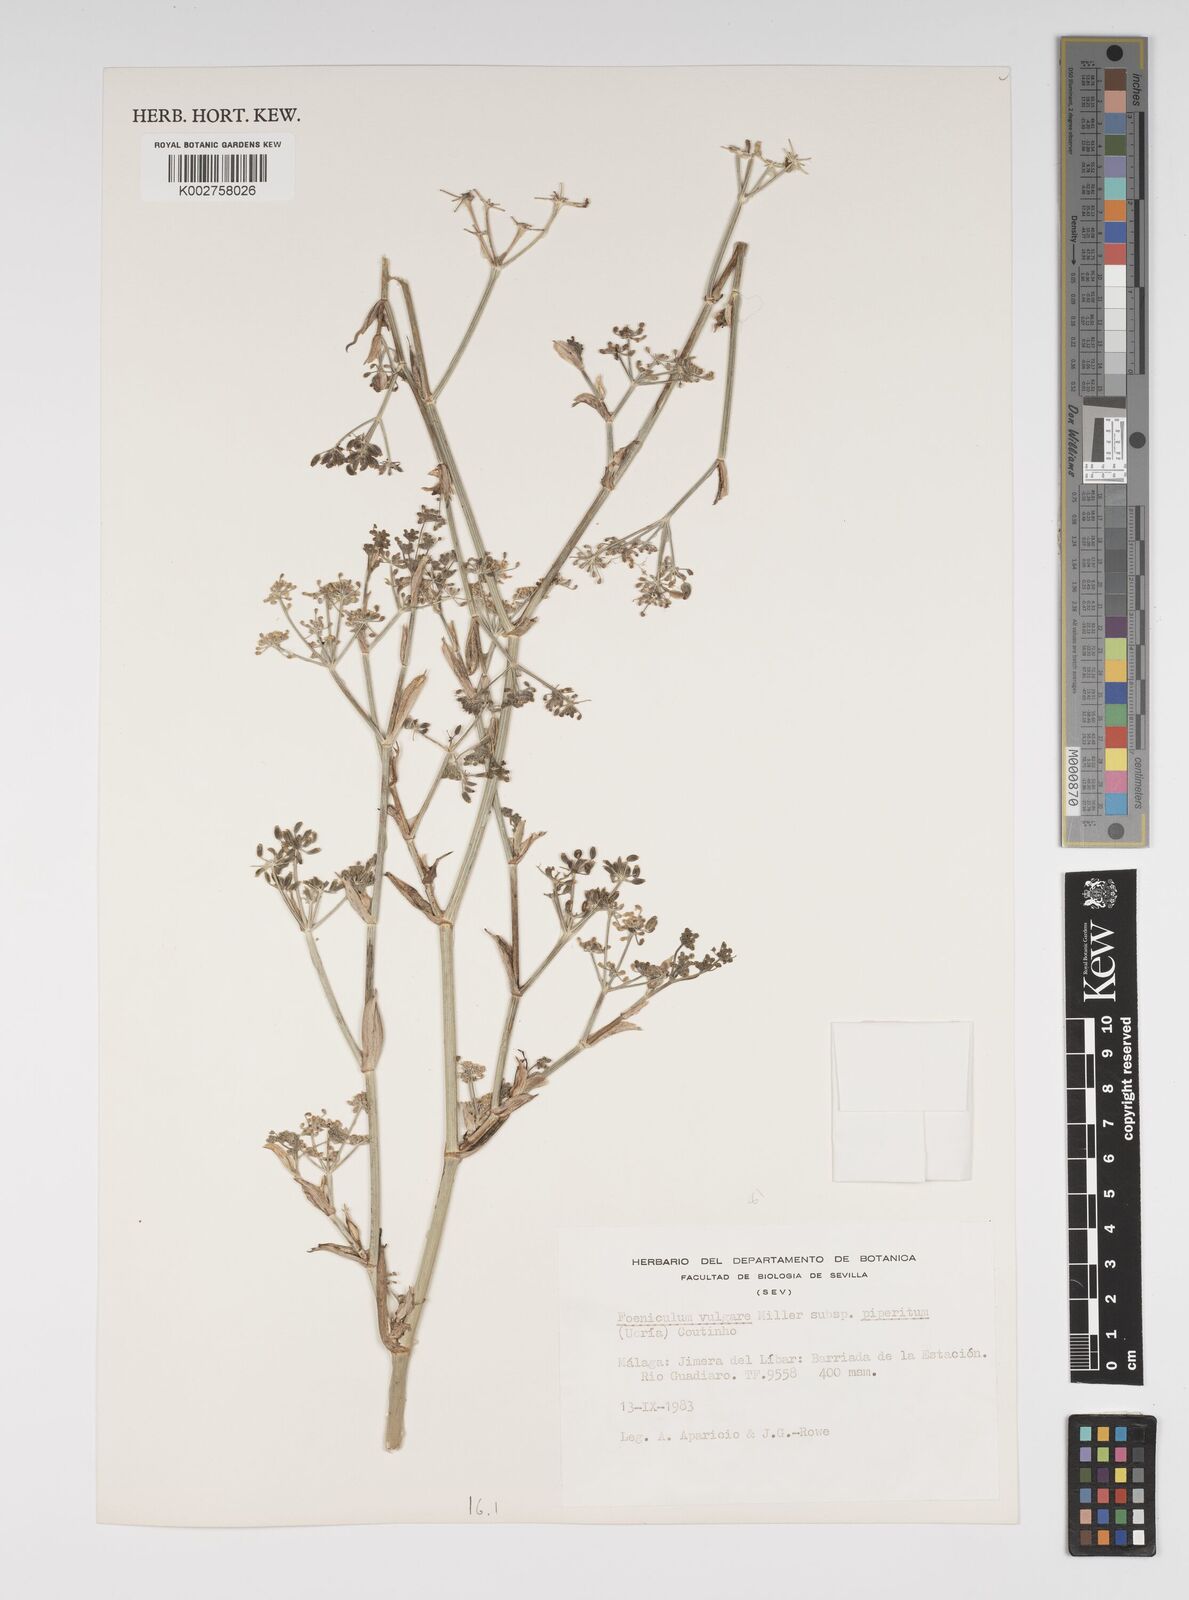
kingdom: Plantae
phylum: Tracheophyta
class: Magnoliopsida
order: Apiales
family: Apiaceae
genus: Foeniculum
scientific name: Foeniculum vulgare
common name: Fennel
